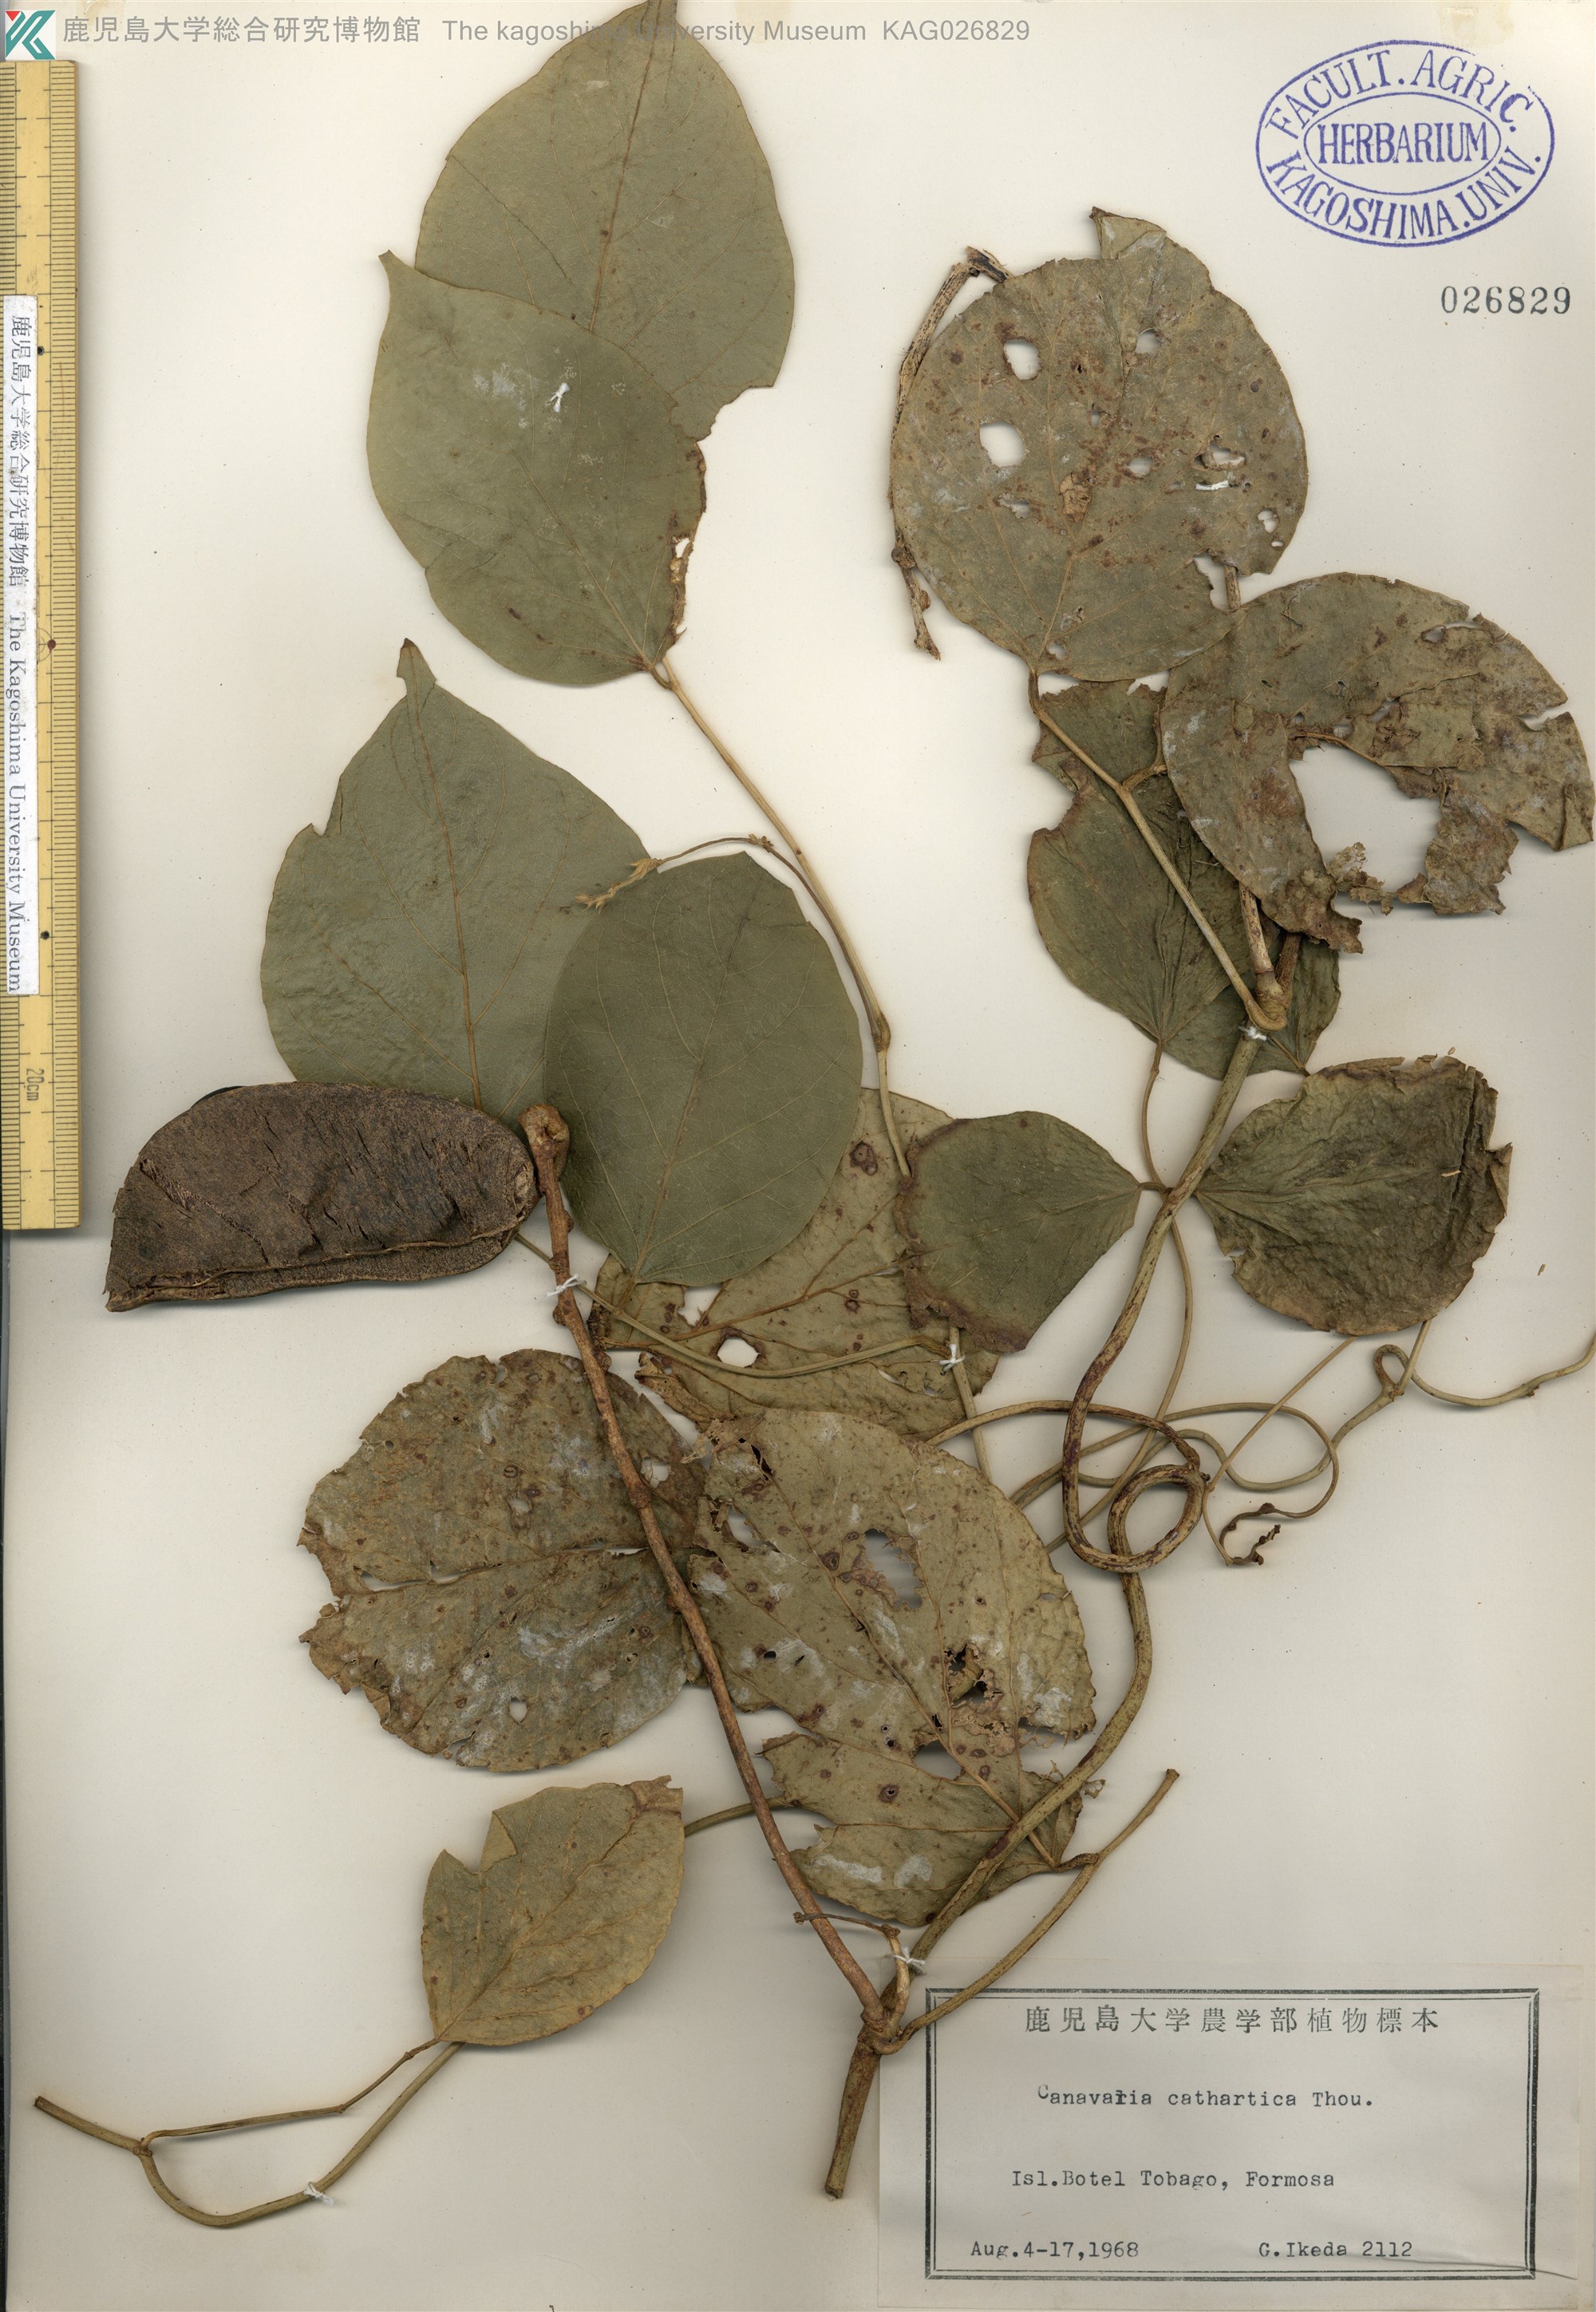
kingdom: Plantae
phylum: Tracheophyta
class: Magnoliopsida
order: Fabales
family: Fabaceae
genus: Canavalia
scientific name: Canavalia cathartica
